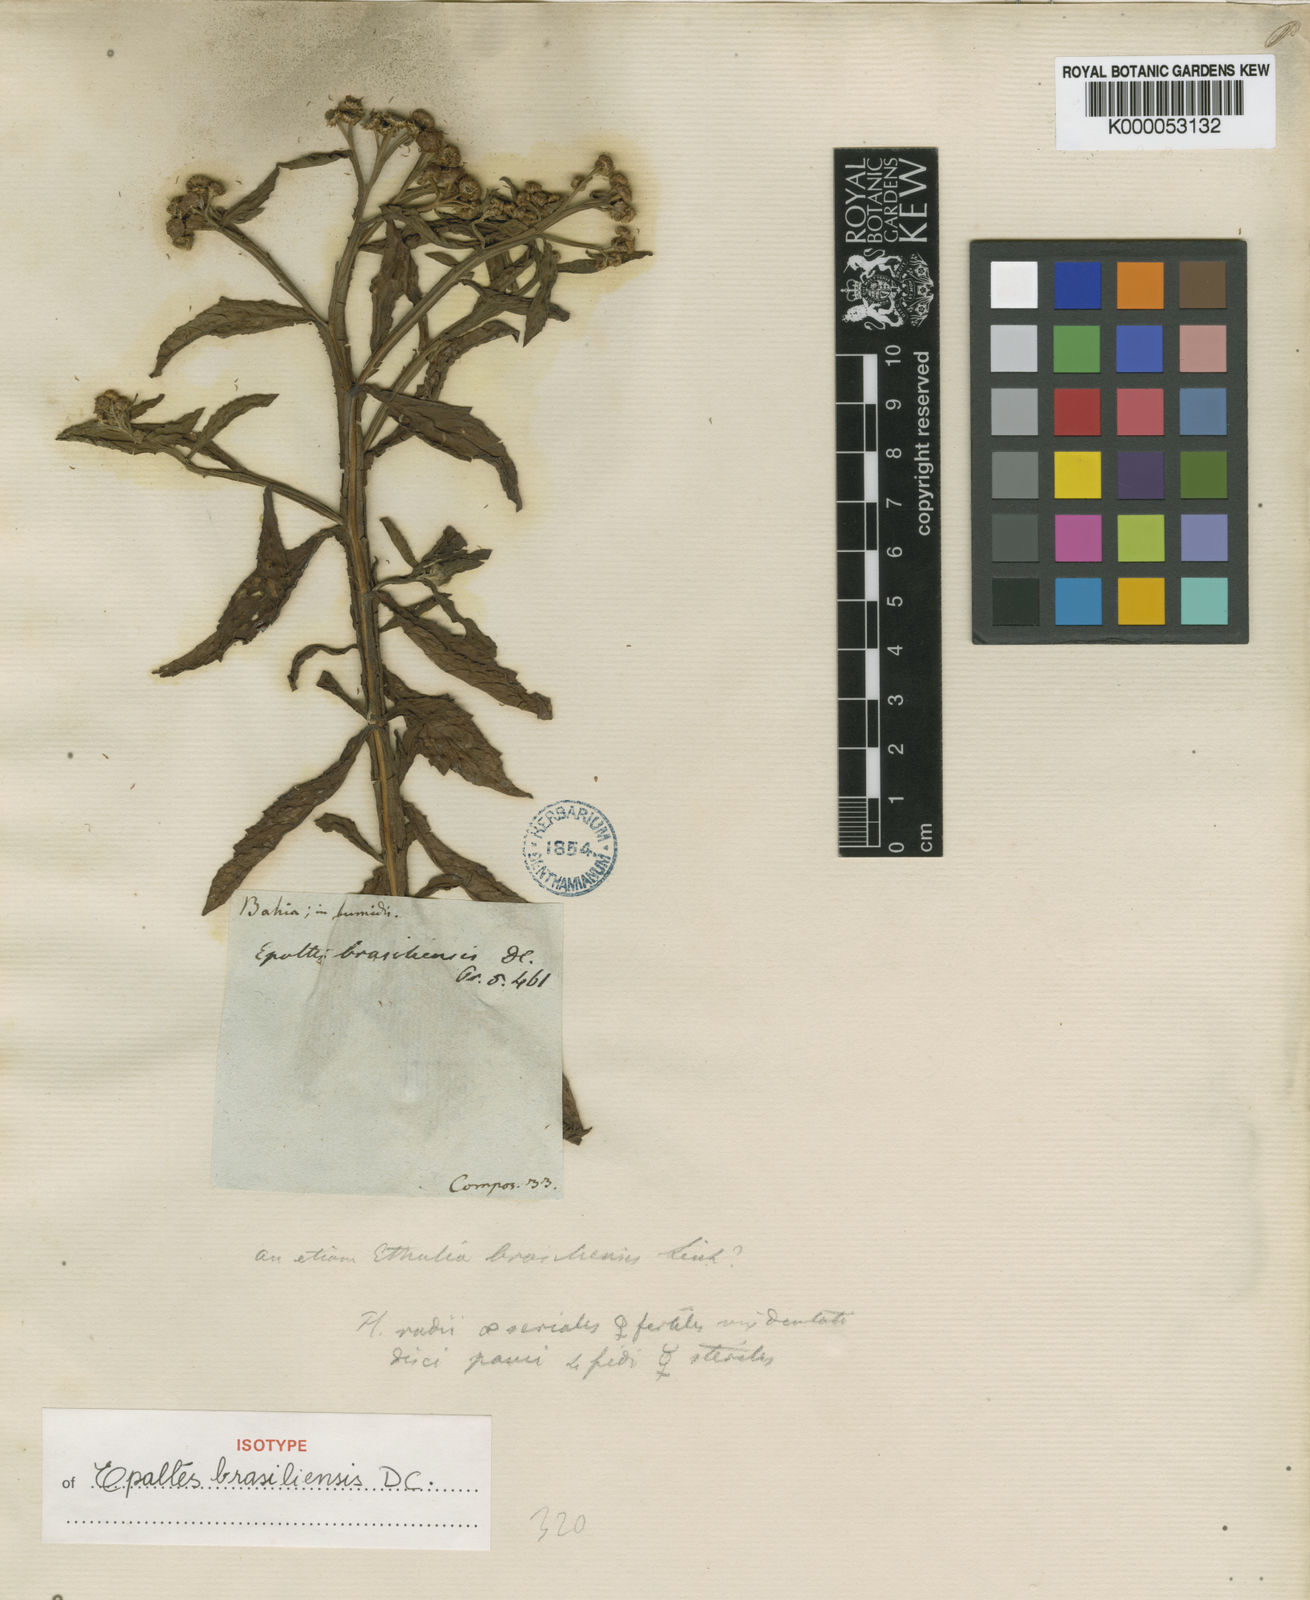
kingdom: Plantae
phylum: Tracheophyta
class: Magnoliopsida
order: Asterales
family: Asteraceae
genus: Epaltes
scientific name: Epaltes brasiliensis
